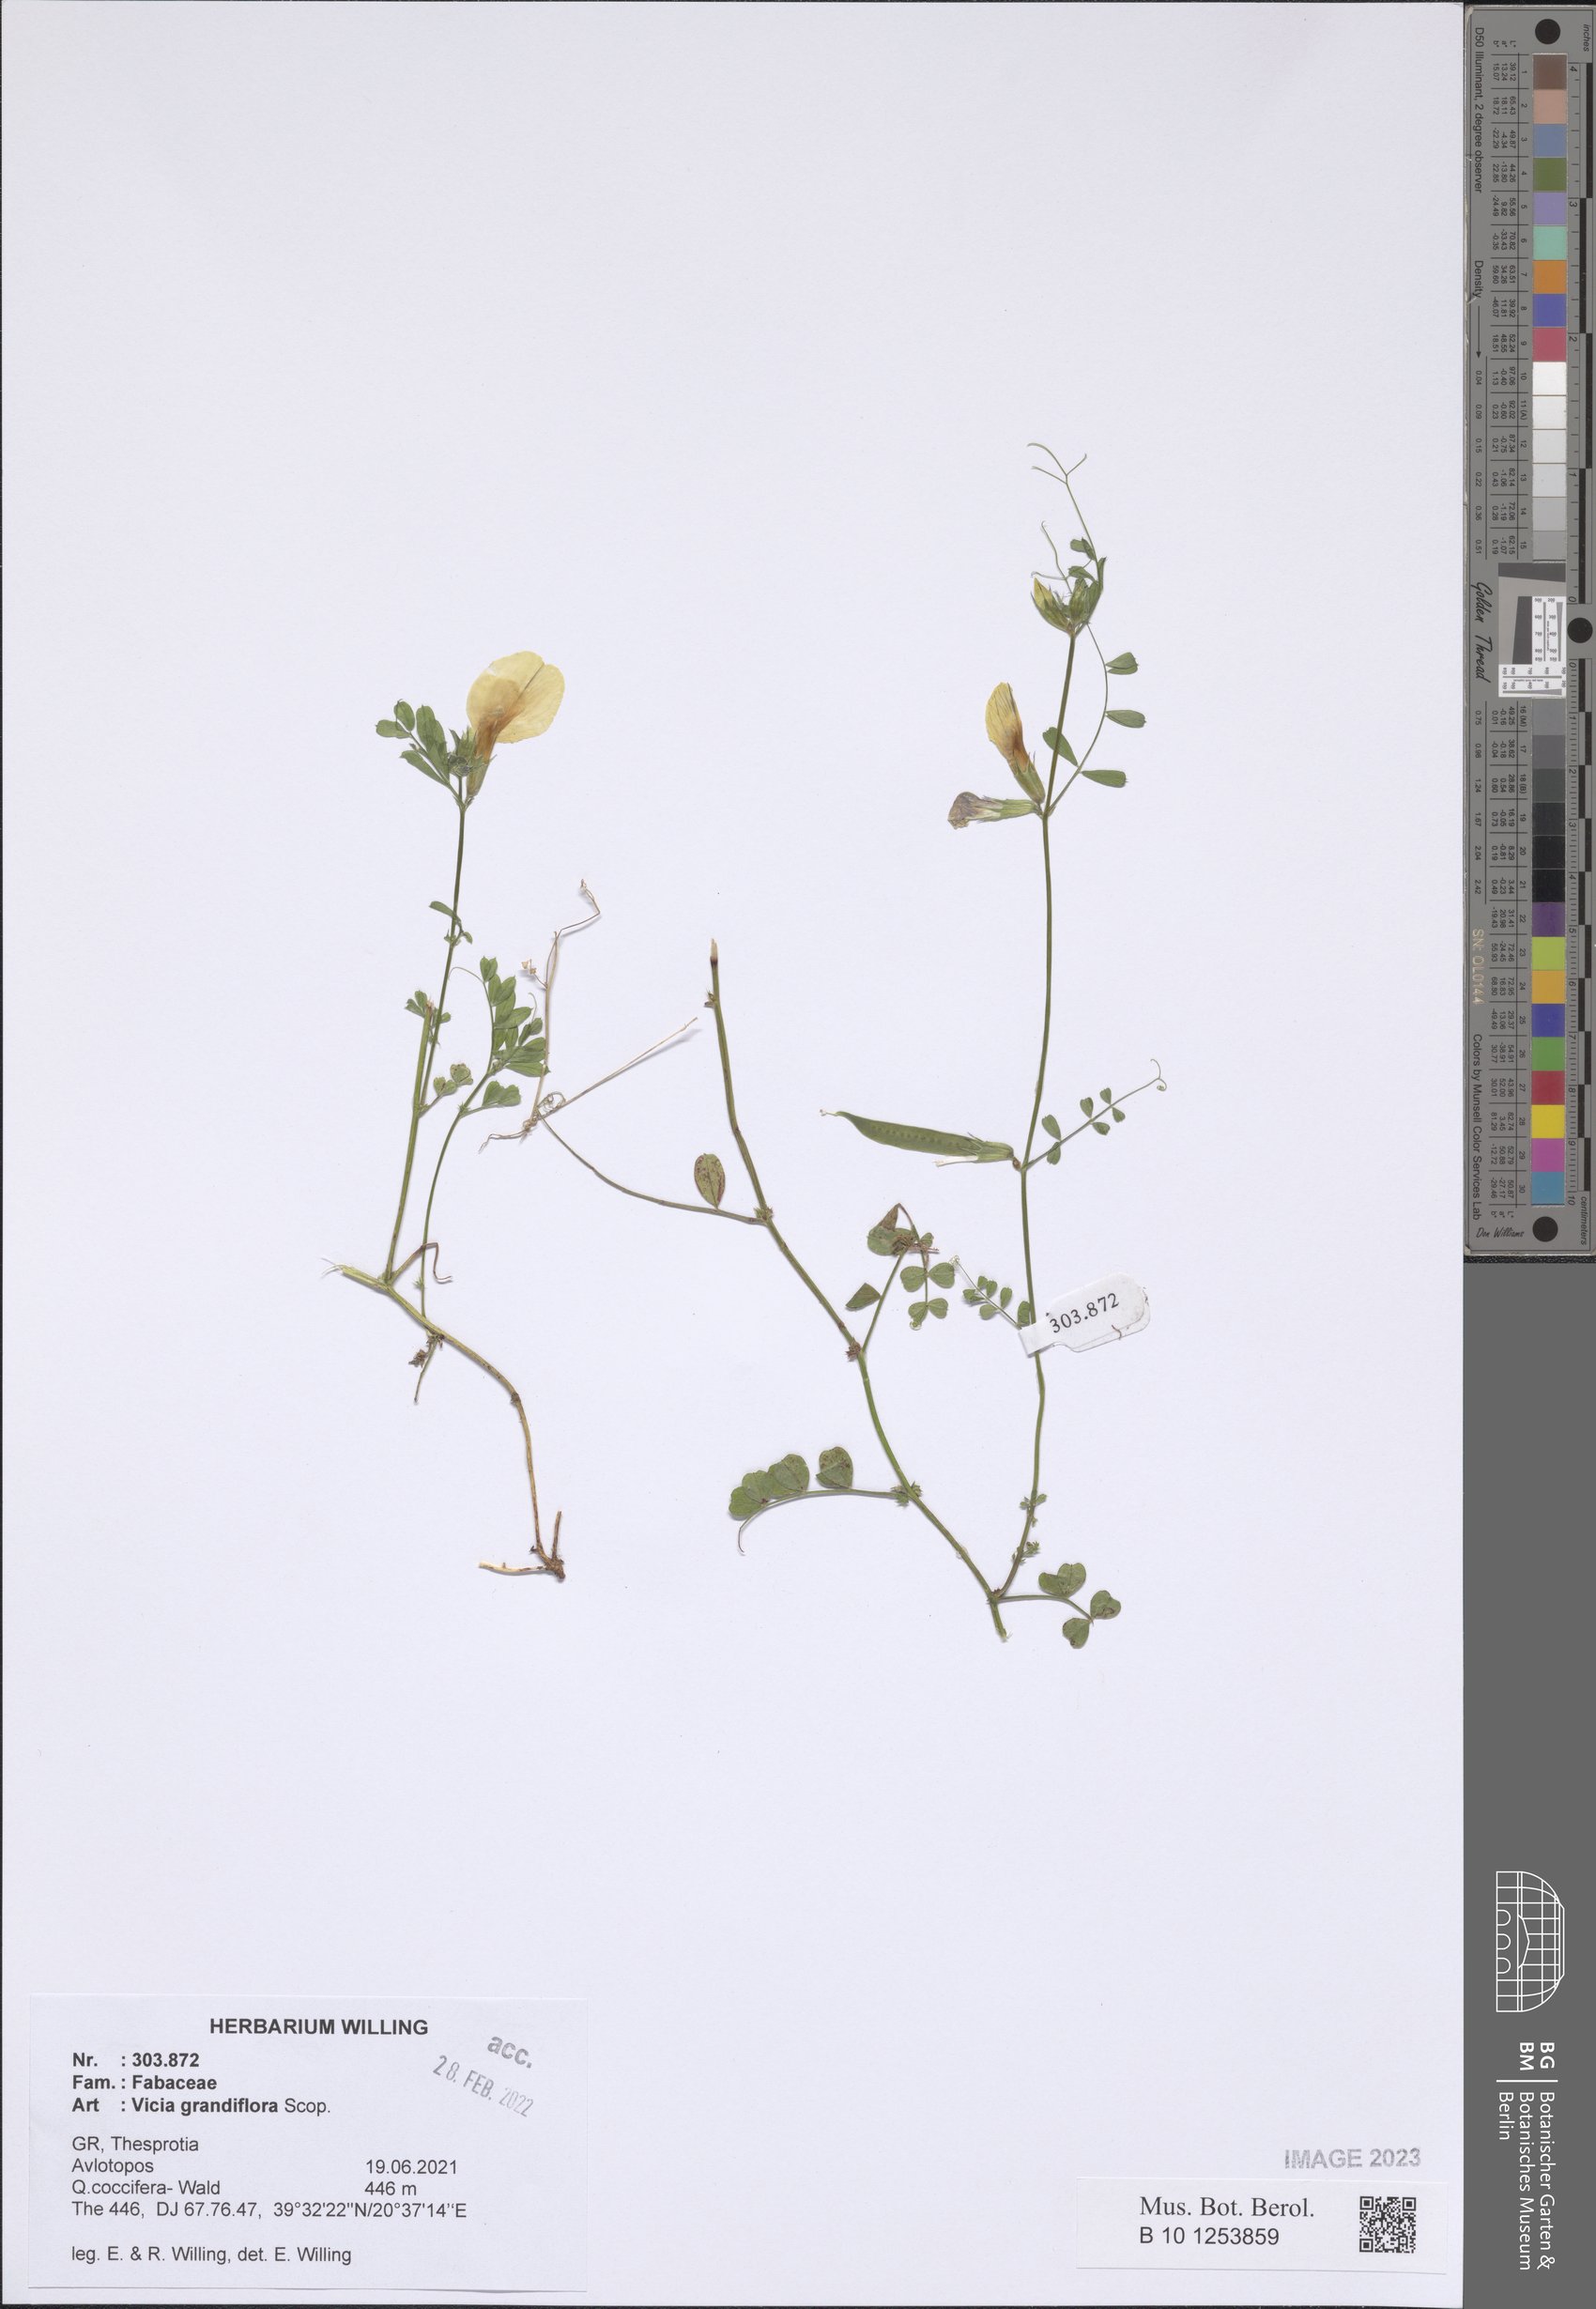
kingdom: Plantae
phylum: Tracheophyta
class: Magnoliopsida
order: Fabales
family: Fabaceae
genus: Vicia
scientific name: Vicia grandiflora
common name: Large yellow vetch
